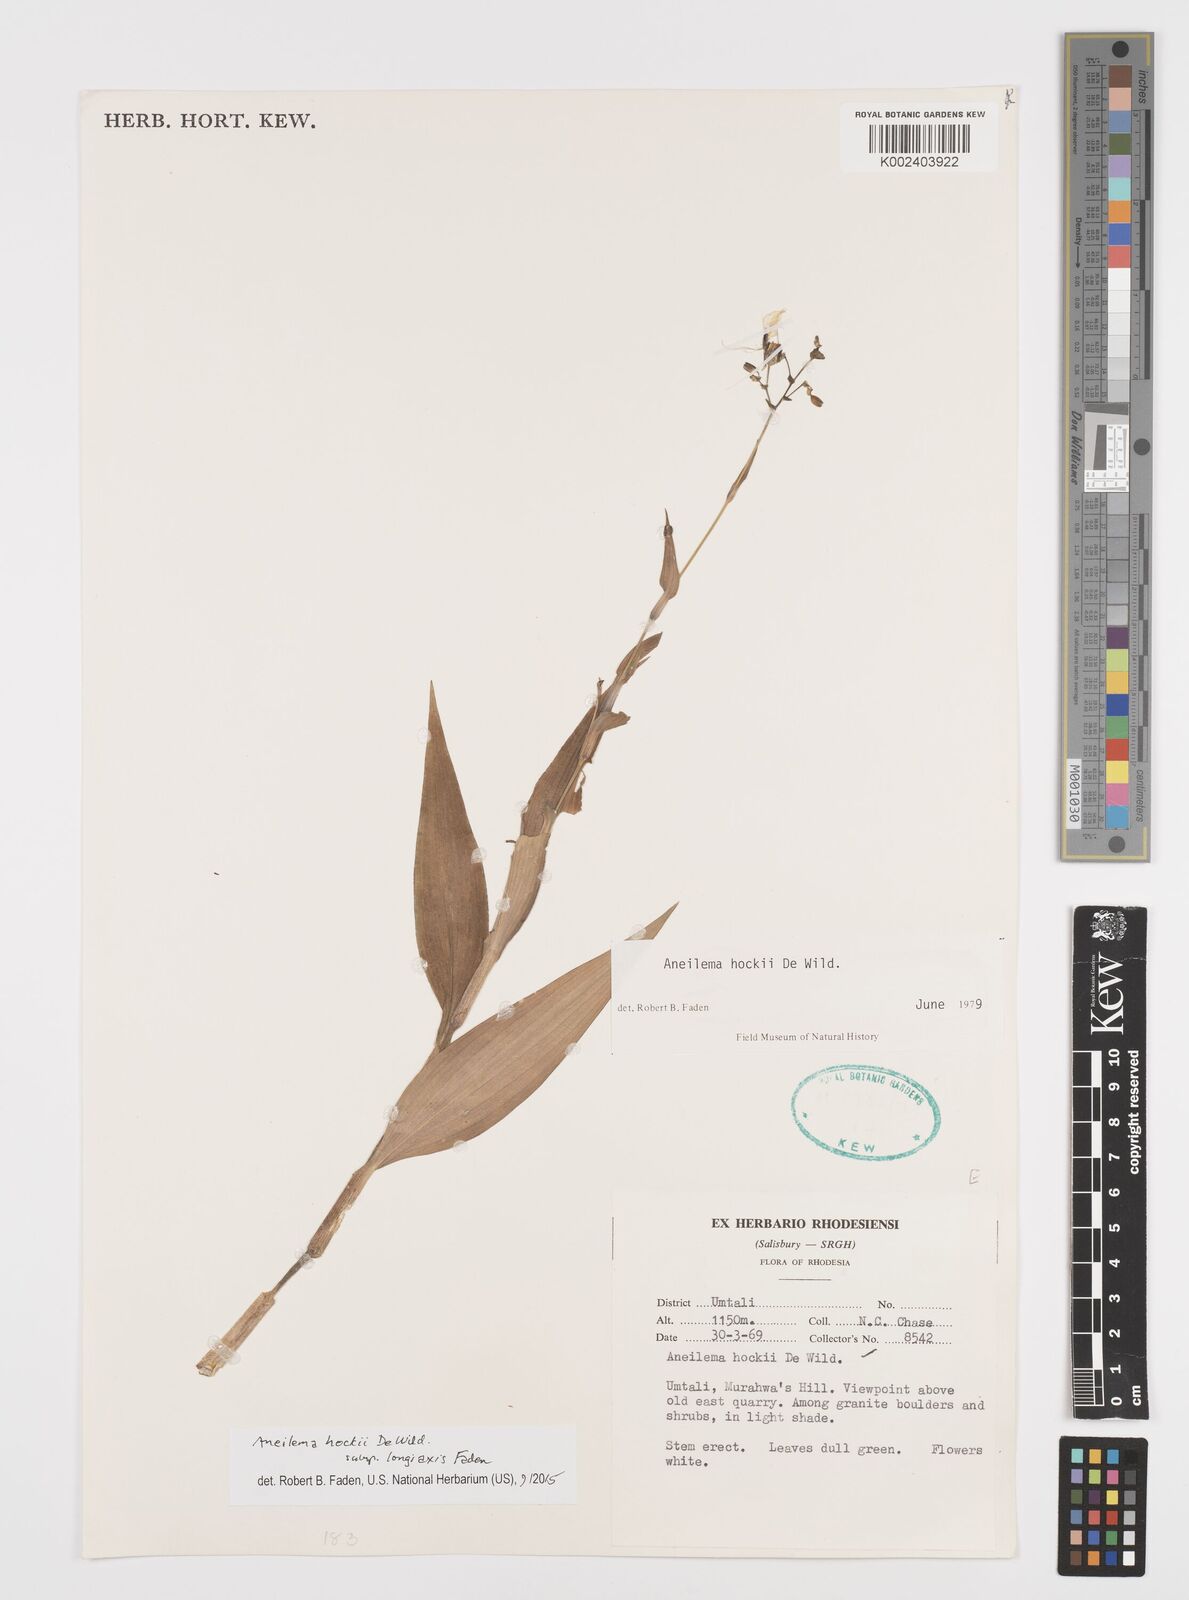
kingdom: Plantae
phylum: Tracheophyta
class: Liliopsida
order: Commelinales
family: Commelinaceae
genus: Aneilema
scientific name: Aneilema hockii
